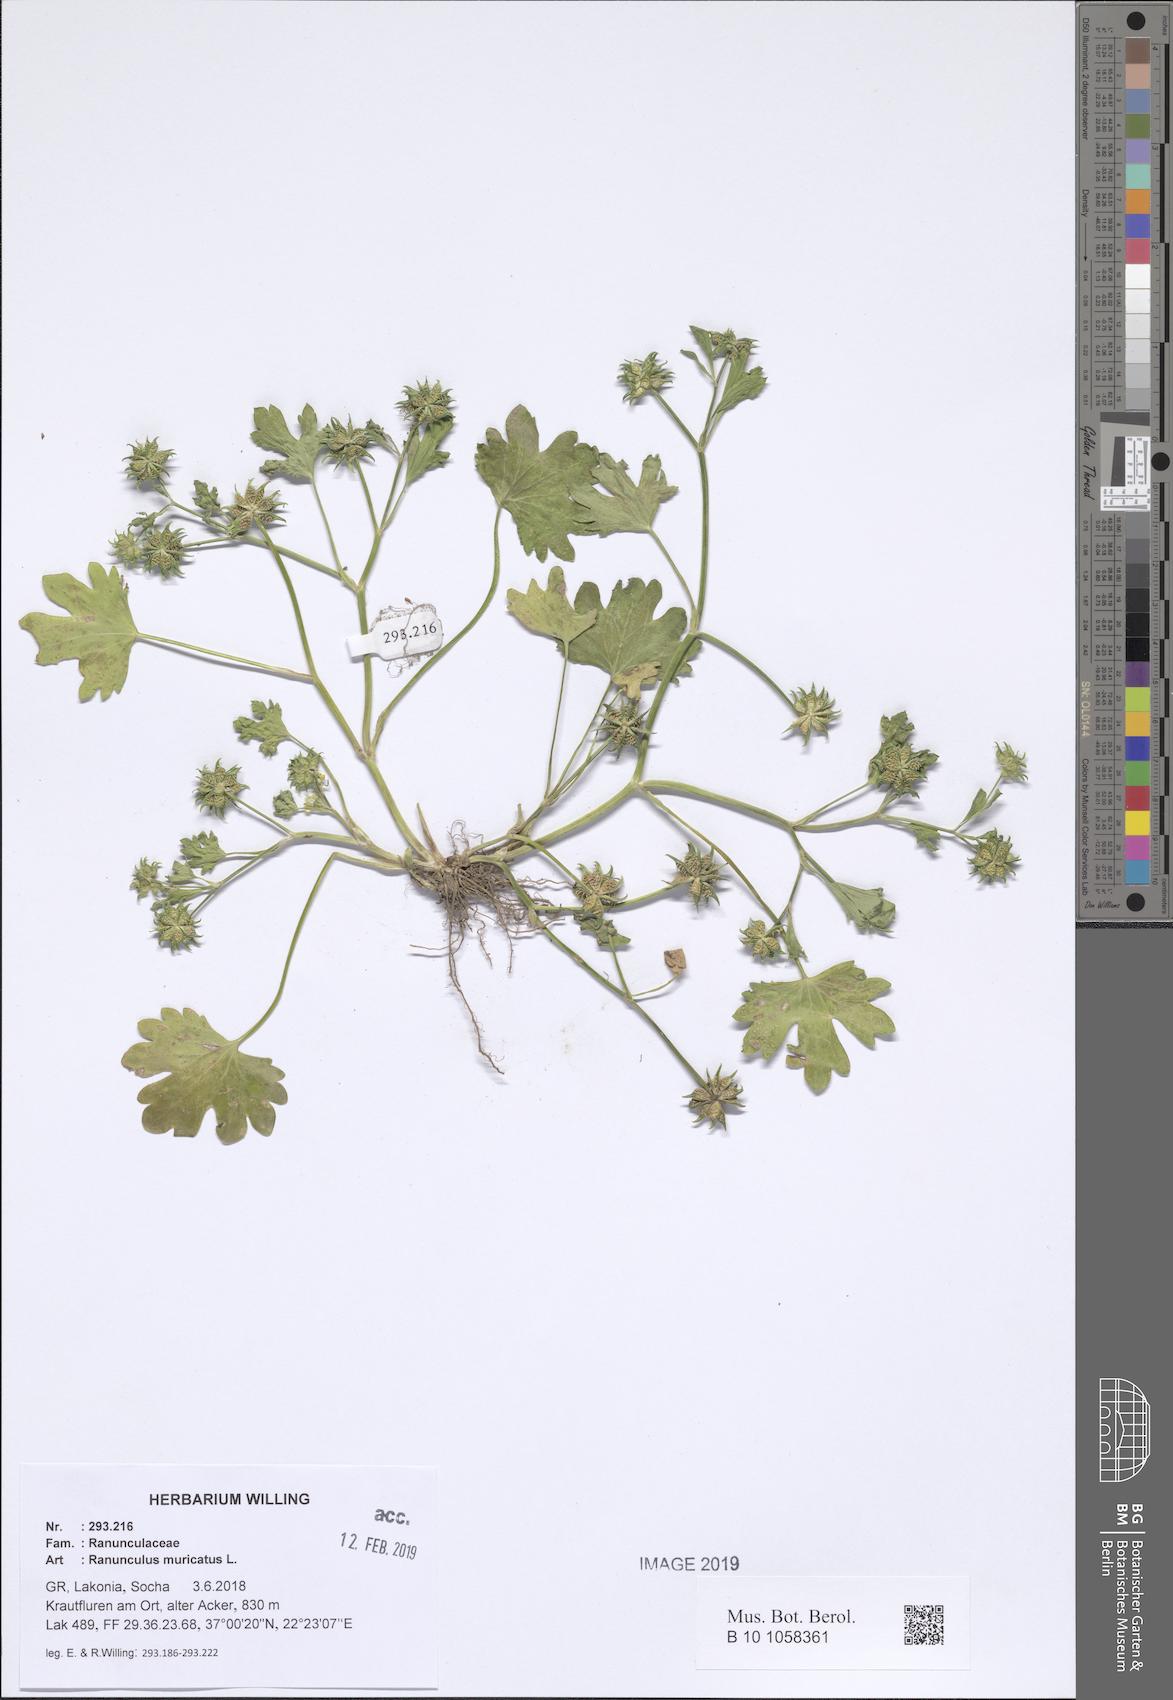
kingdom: Plantae
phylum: Tracheophyta
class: Magnoliopsida
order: Ranunculales
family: Ranunculaceae
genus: Ranunculus
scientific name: Ranunculus muricatus
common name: Rough-fruited buttercup
